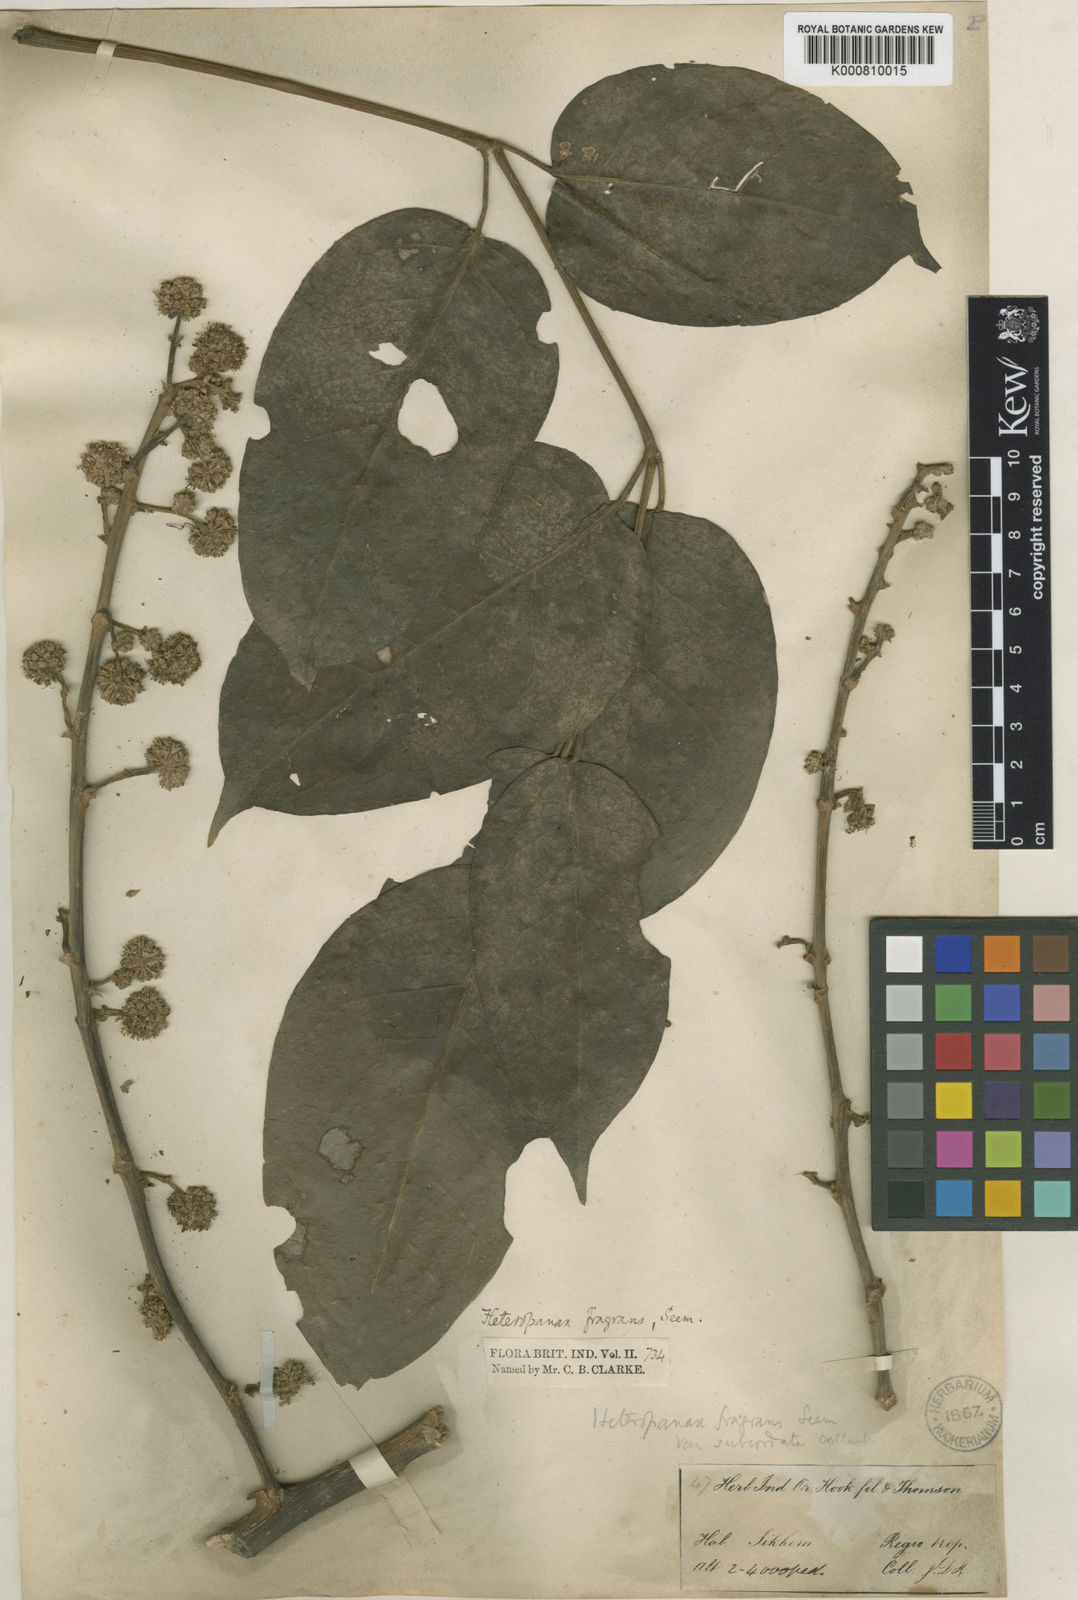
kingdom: Plantae
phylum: Tracheophyta
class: Magnoliopsida
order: Apiales
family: Araliaceae
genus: Heteropanax
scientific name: Heteropanax fragrans
